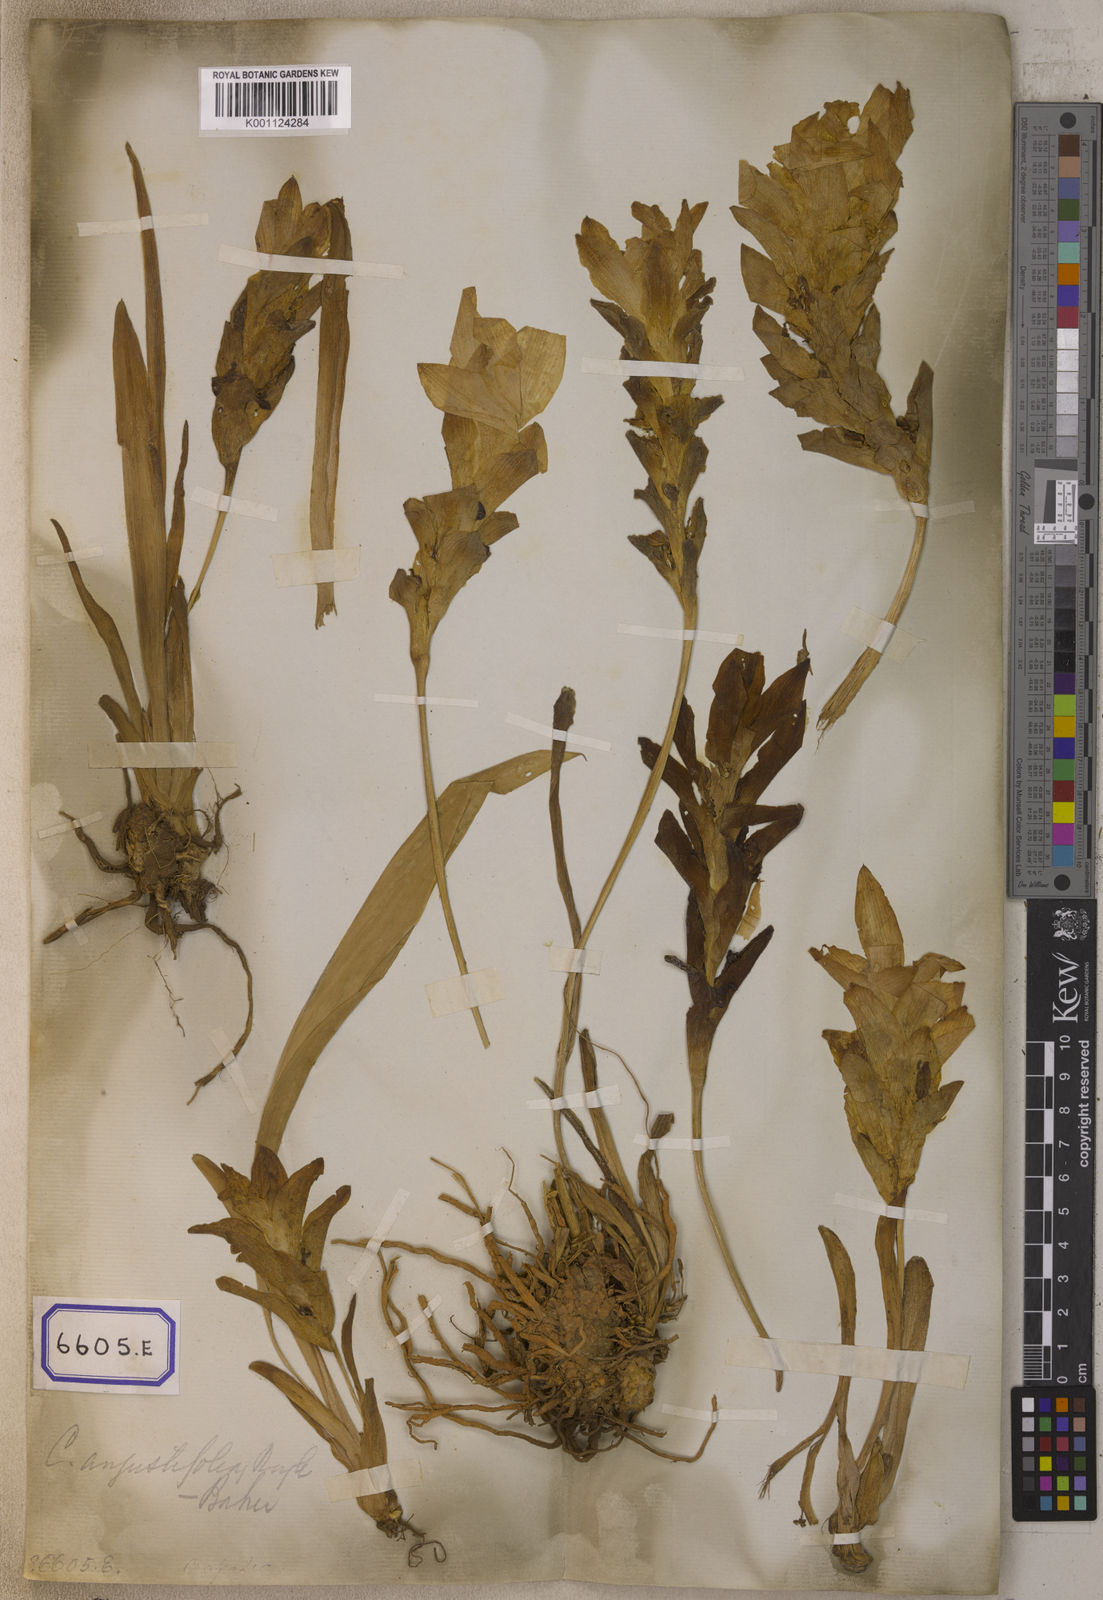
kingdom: Plantae
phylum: Tracheophyta
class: Liliopsida
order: Zingiberales
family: Zingiberaceae
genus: Curcuma
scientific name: Curcuma longa
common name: Turmeric
